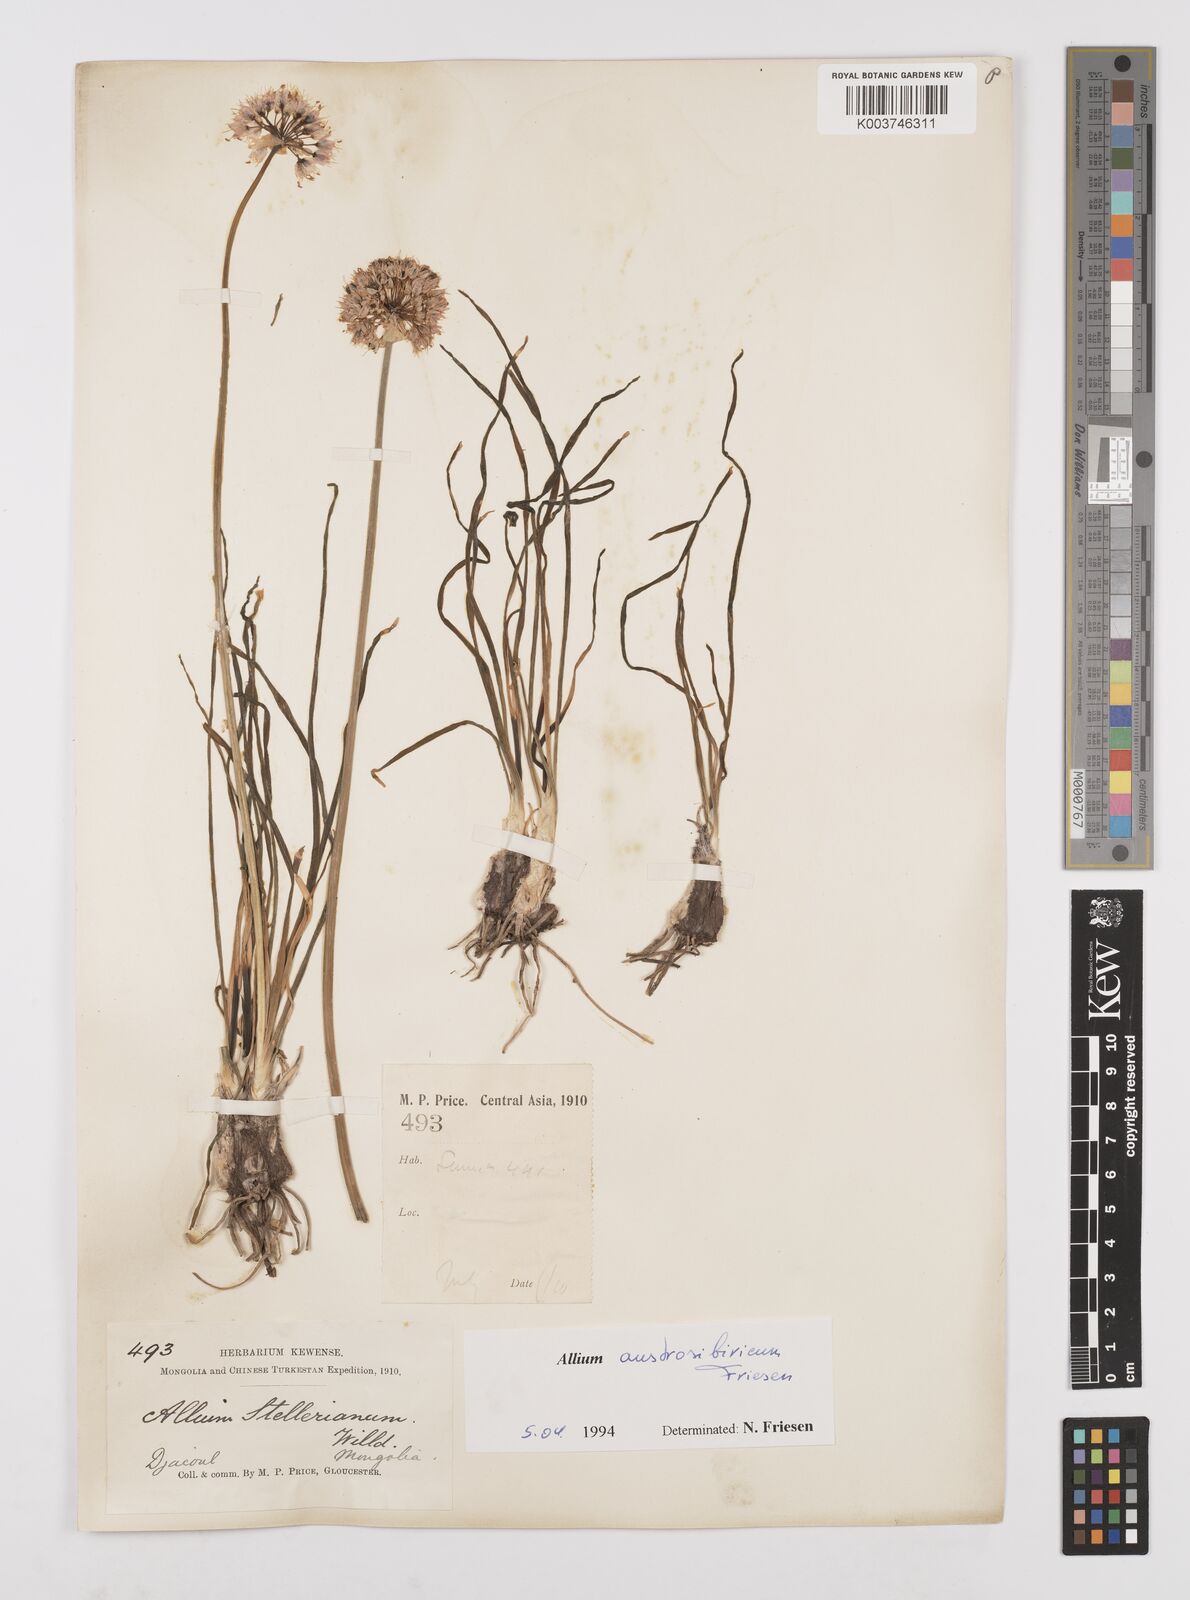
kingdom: Plantae
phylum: Tracheophyta
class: Liliopsida
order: Asparagales
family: Amaryllidaceae
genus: Allium
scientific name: Allium austrosibiricum
